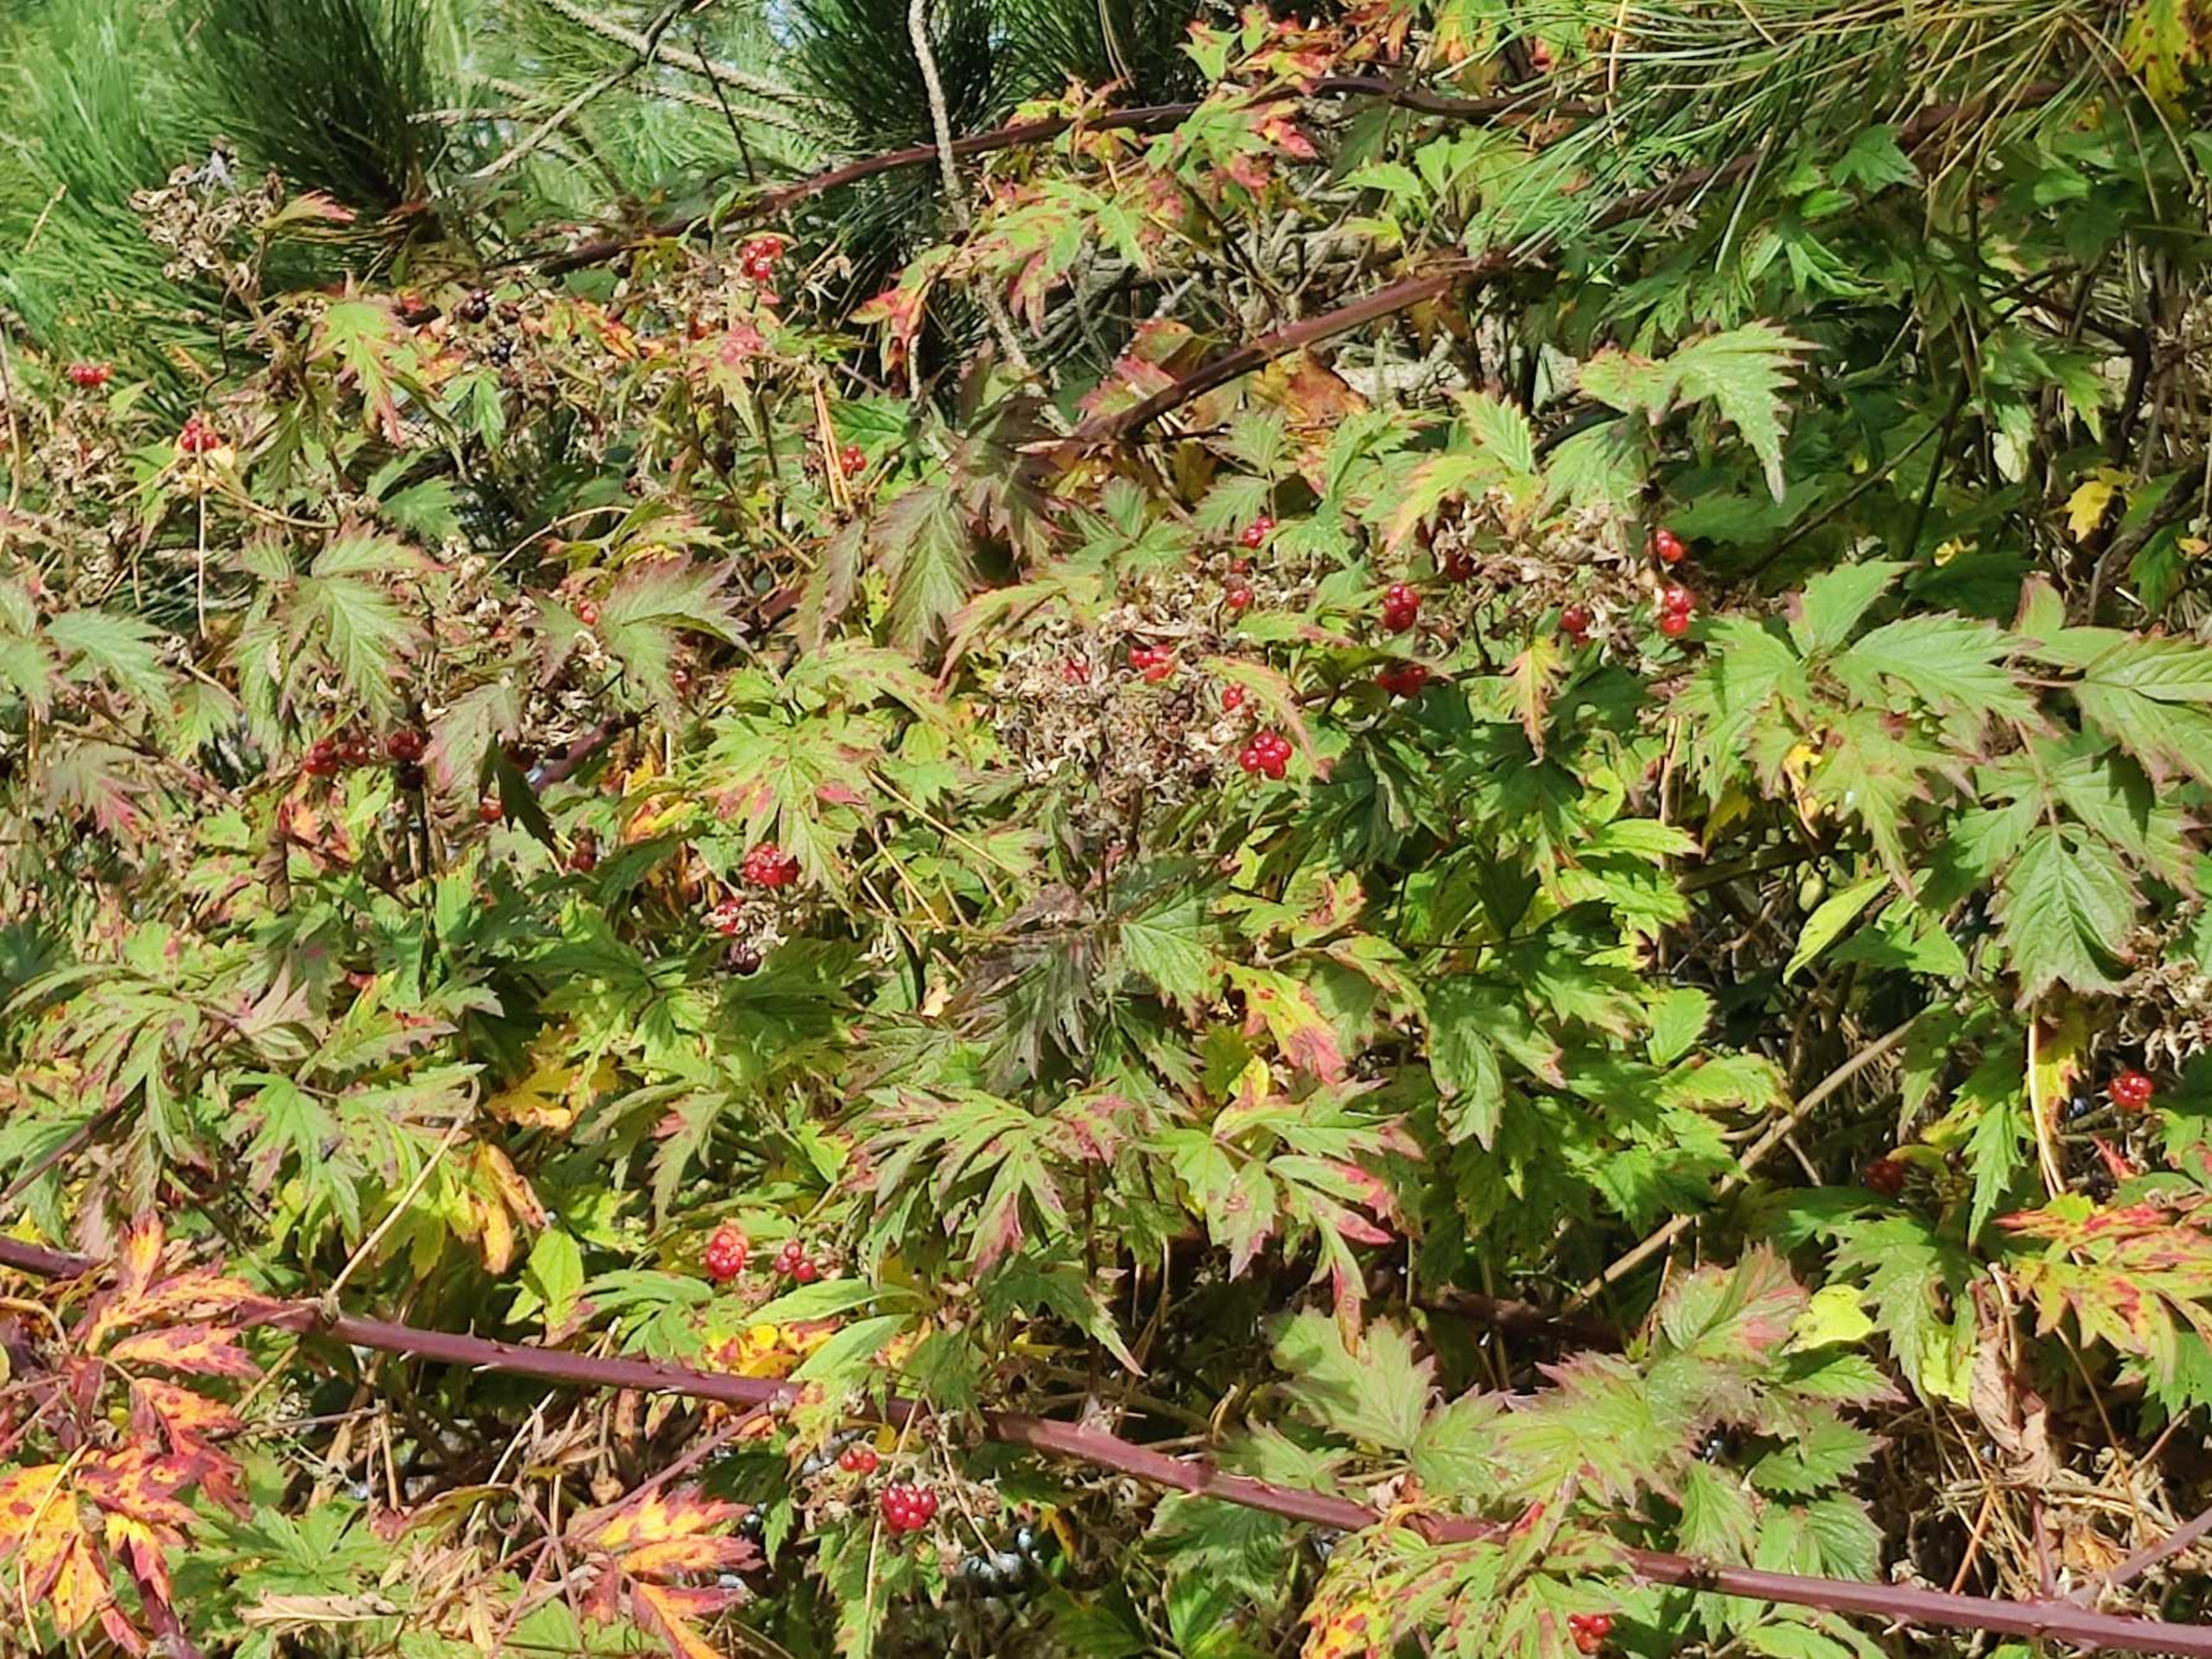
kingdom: Plantae
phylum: Tracheophyta
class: Magnoliopsida
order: Rosales
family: Rosaceae
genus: Rubus
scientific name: Rubus laciniatus
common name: Fliget brombær
